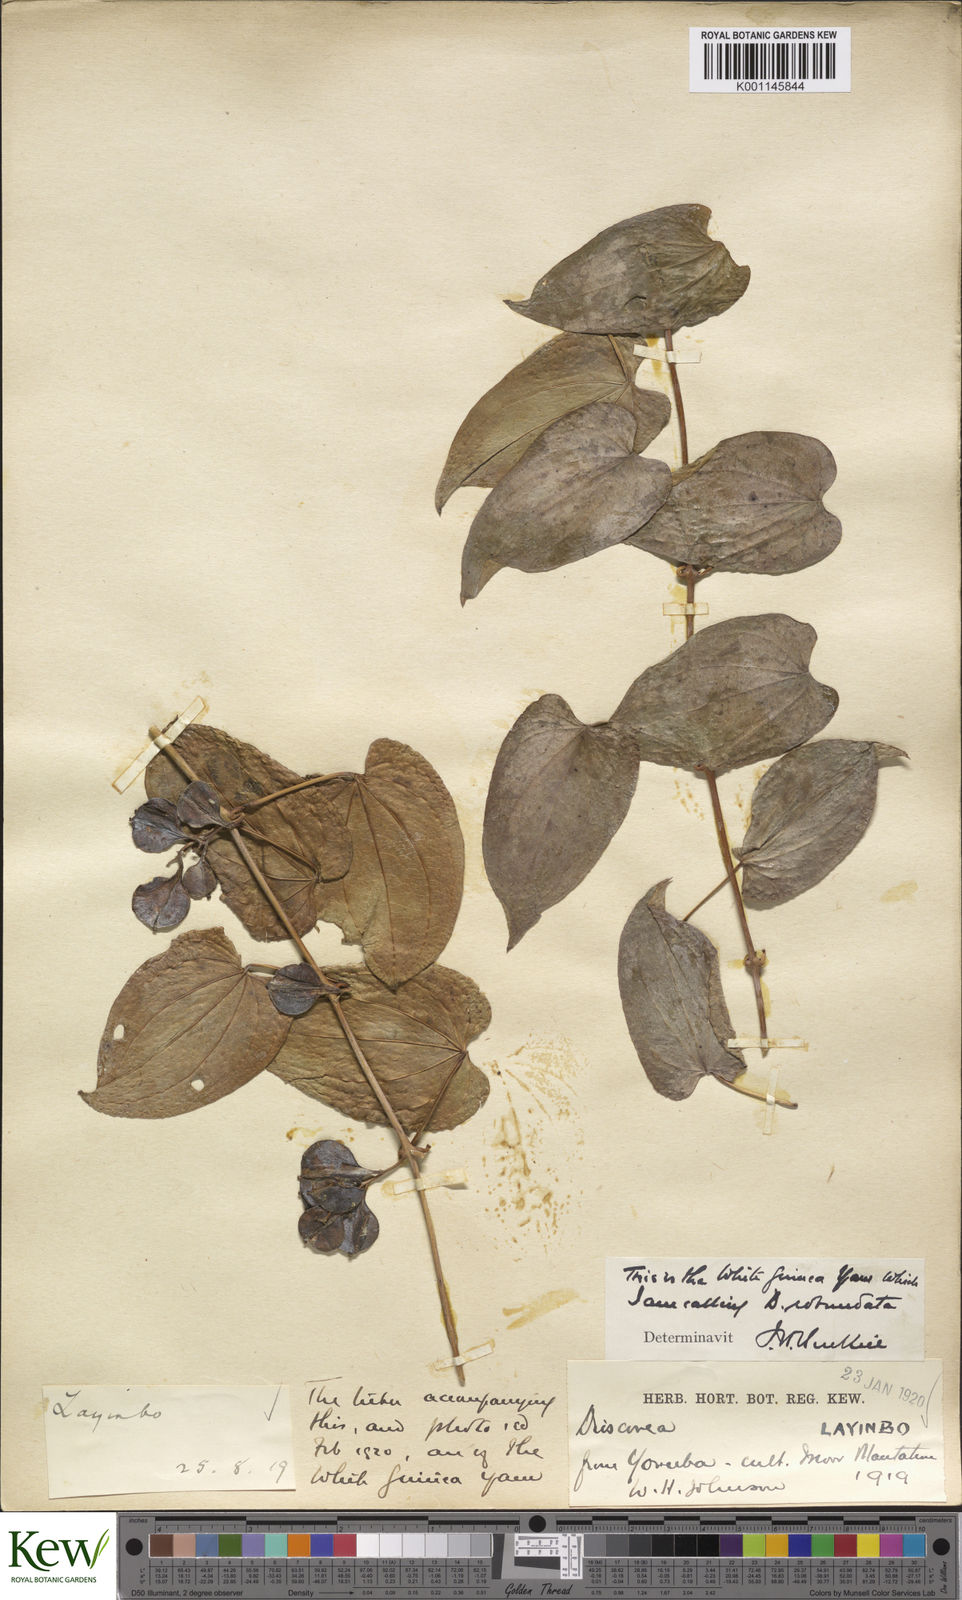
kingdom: Plantae
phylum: Tracheophyta
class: Liliopsida
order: Dioscoreales
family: Dioscoreaceae
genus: Dioscorea
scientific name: Dioscorea cayenensis
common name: Attoto yam
